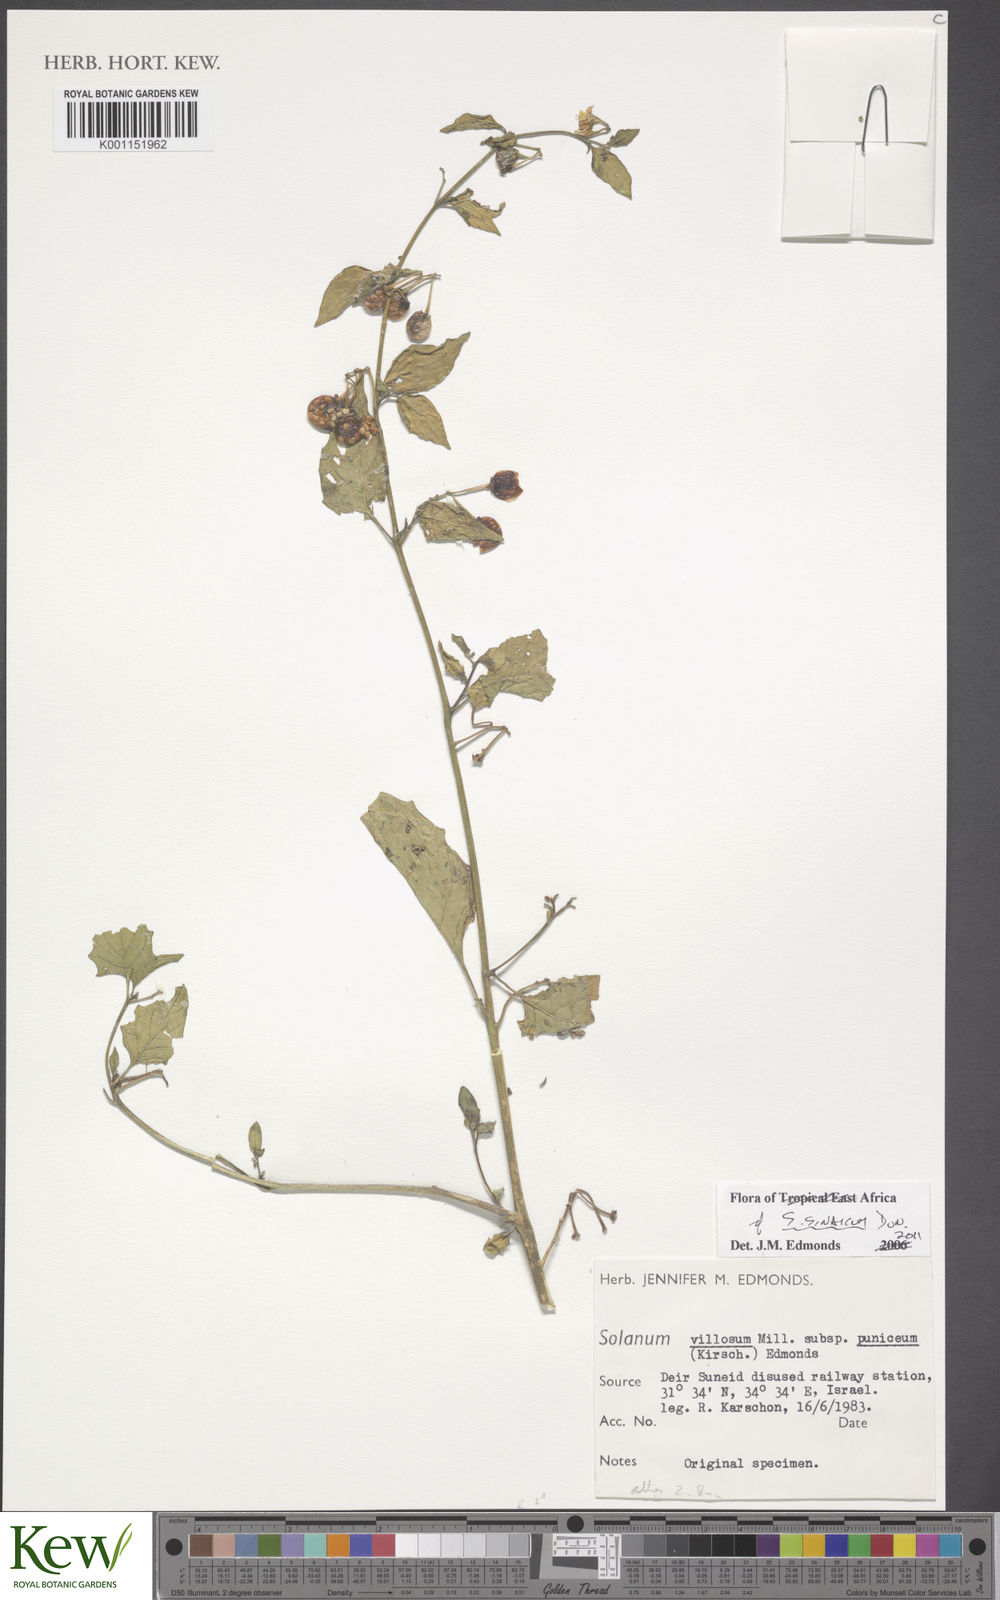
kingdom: Plantae
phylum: Tracheophyta
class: Magnoliopsida
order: Solanales
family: Solanaceae
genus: Solanum
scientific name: Solanum villosum
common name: Red nightshade
